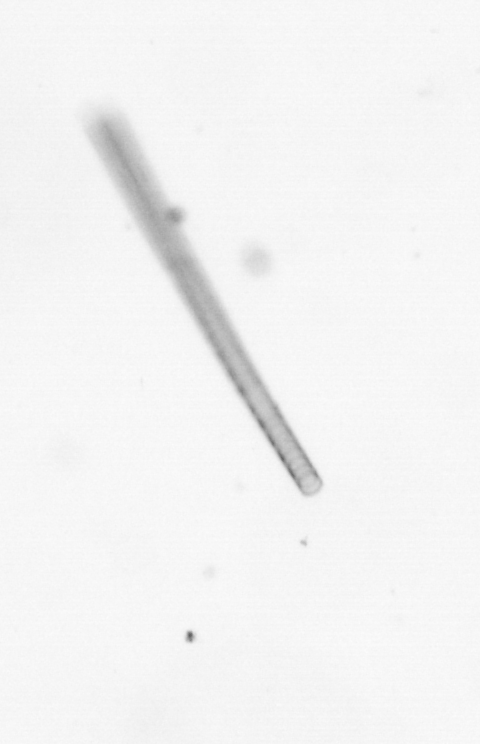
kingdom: Chromista
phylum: Ochrophyta
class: Bacillariophyceae
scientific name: Bacillariophyceae
